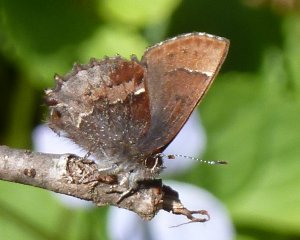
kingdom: Animalia
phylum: Arthropoda
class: Insecta
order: Lepidoptera
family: Lycaenidae
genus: Incisalia
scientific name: Incisalia henrici
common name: Henry's Elfin
